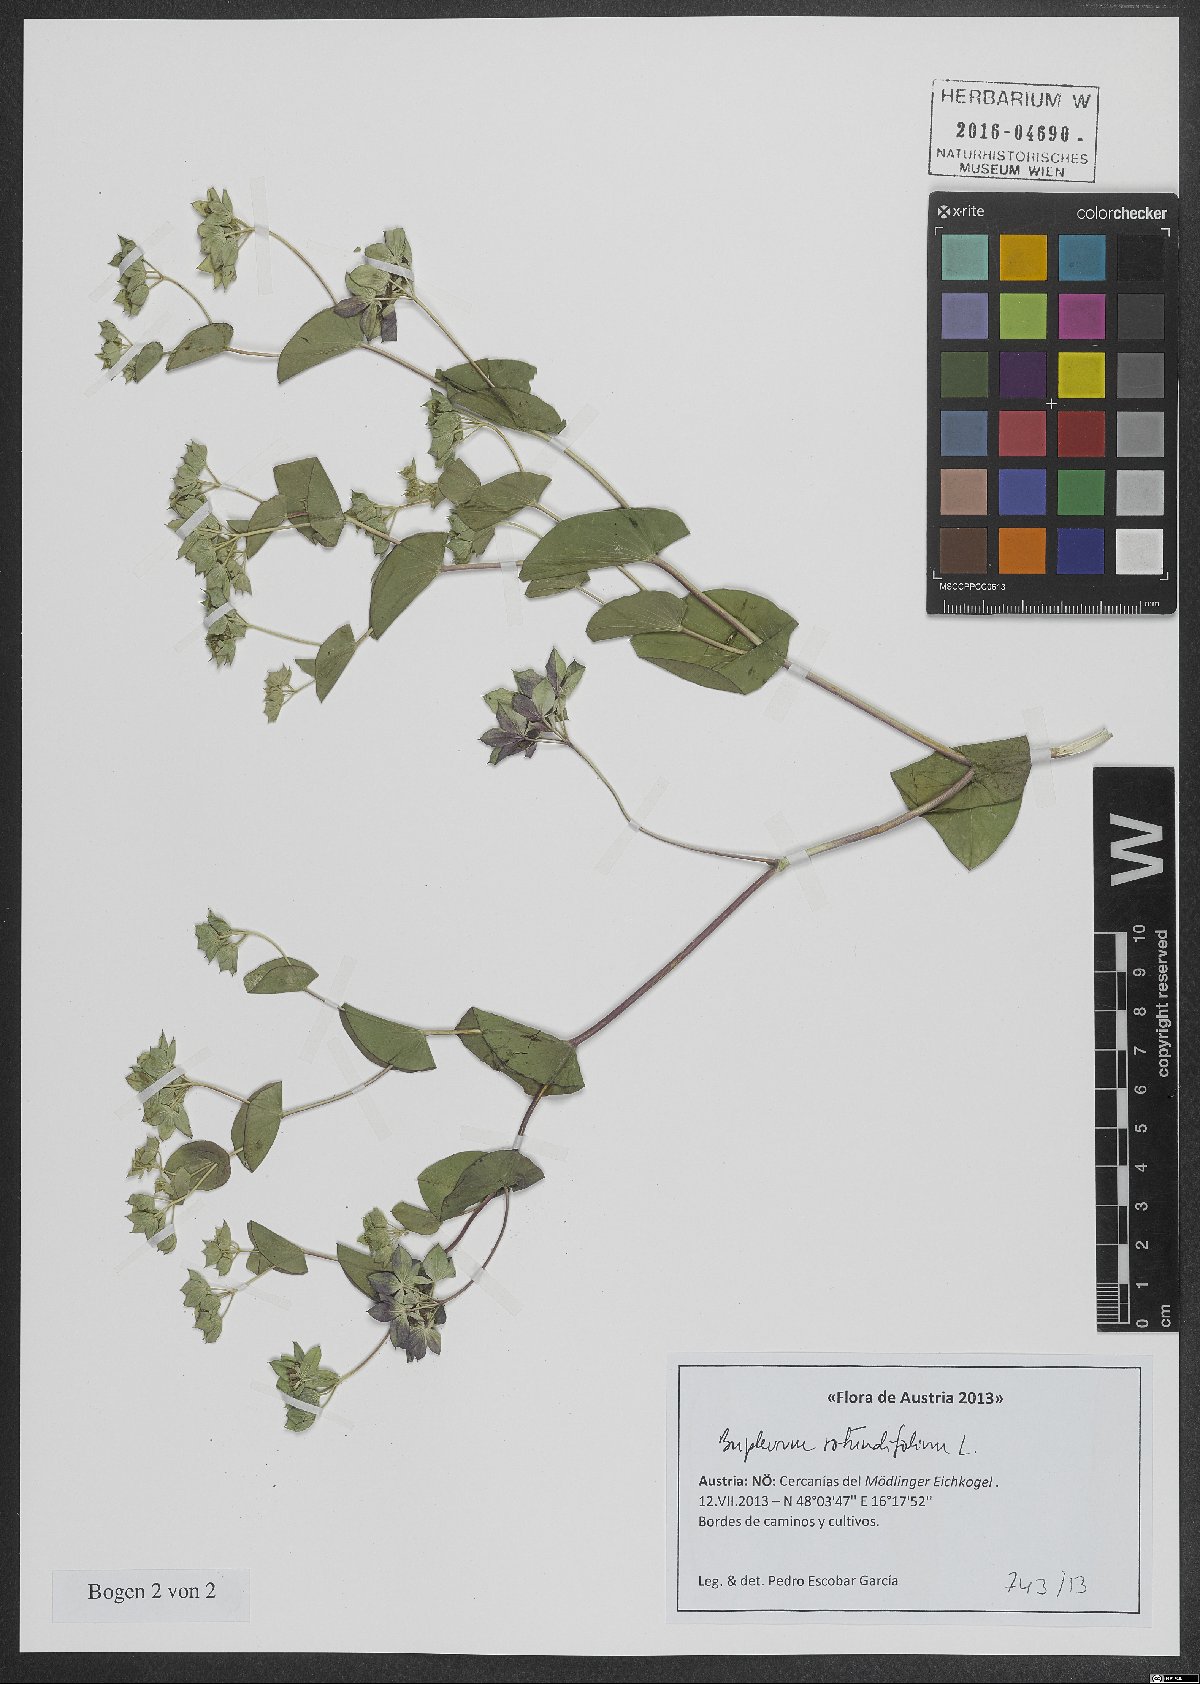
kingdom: Plantae
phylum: Tracheophyta
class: Magnoliopsida
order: Apiales
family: Apiaceae
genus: Bupleurum
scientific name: Bupleurum rotundifolium
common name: Thorow-wax
